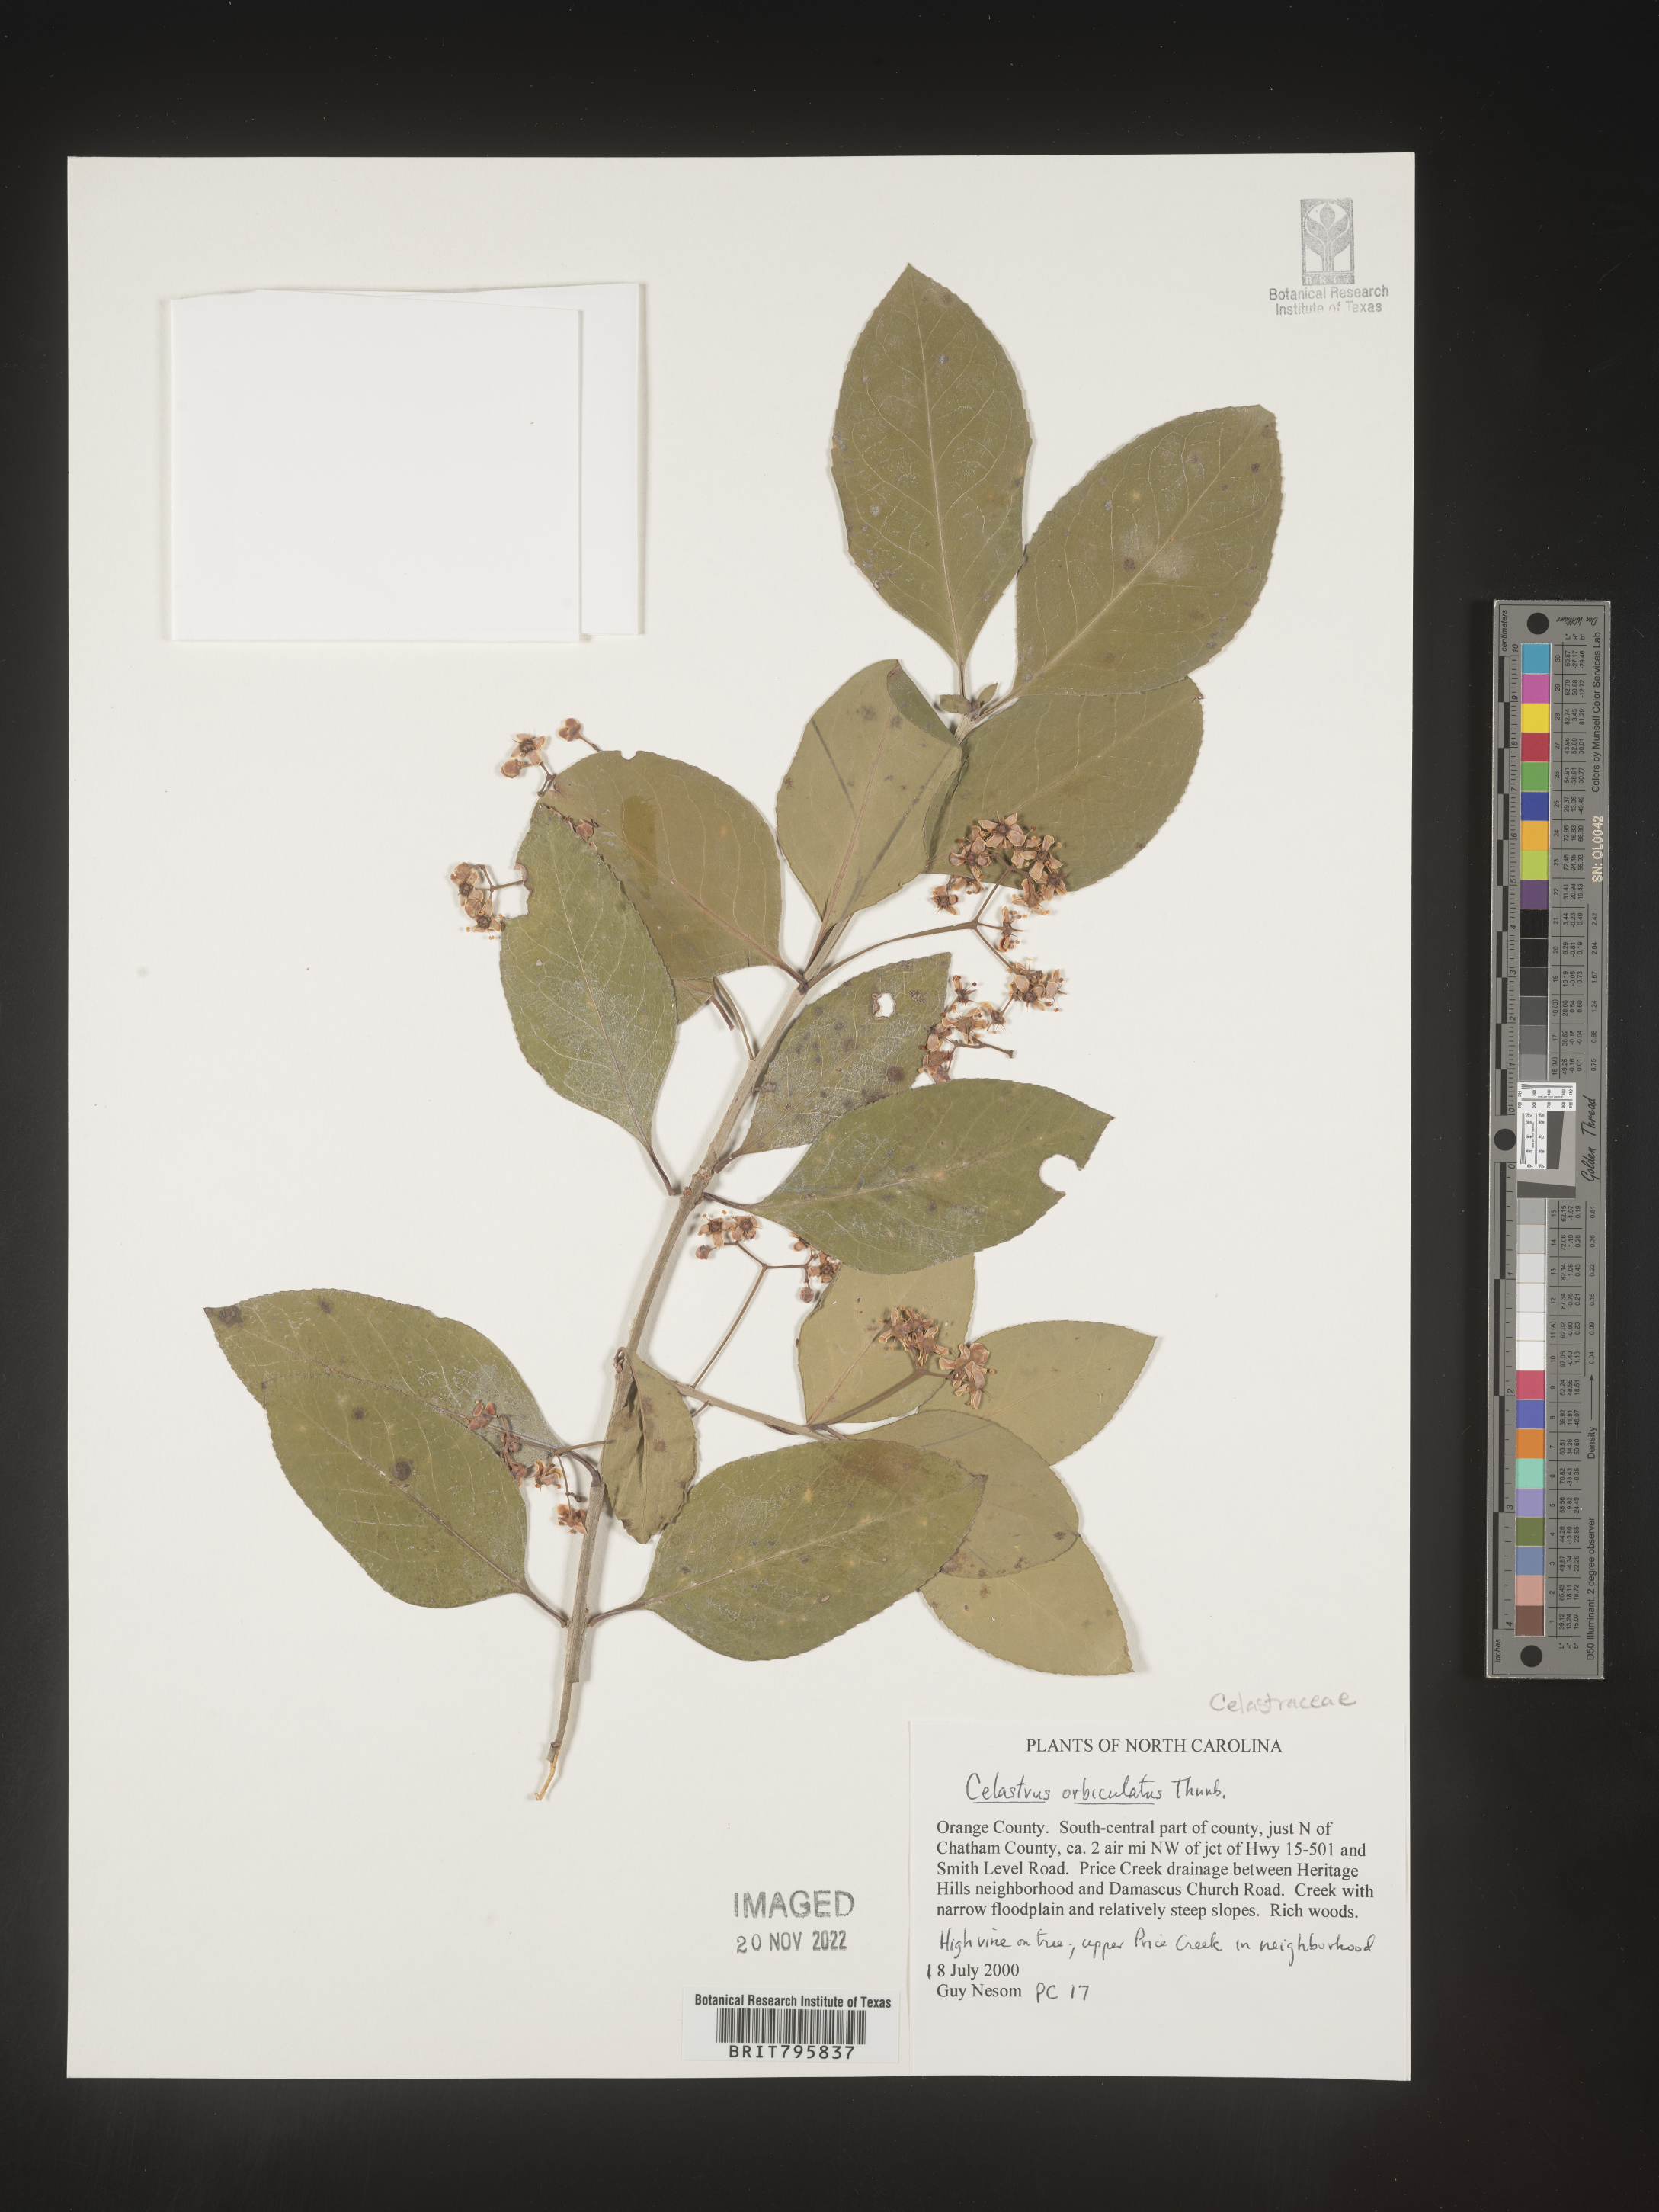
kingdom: Plantae
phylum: Tracheophyta
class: Magnoliopsida
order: Celastrales
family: Celastraceae
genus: Celastrus
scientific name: Celastrus
